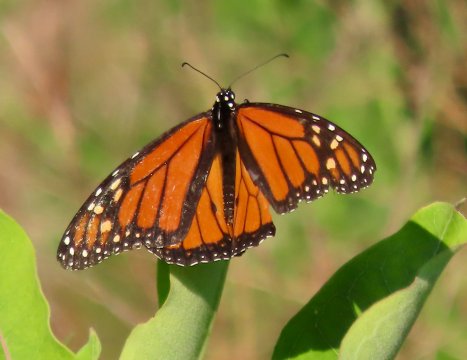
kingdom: Animalia
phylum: Arthropoda
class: Insecta
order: Lepidoptera
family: Nymphalidae
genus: Danaus
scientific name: Danaus plexippus
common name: Monarch
